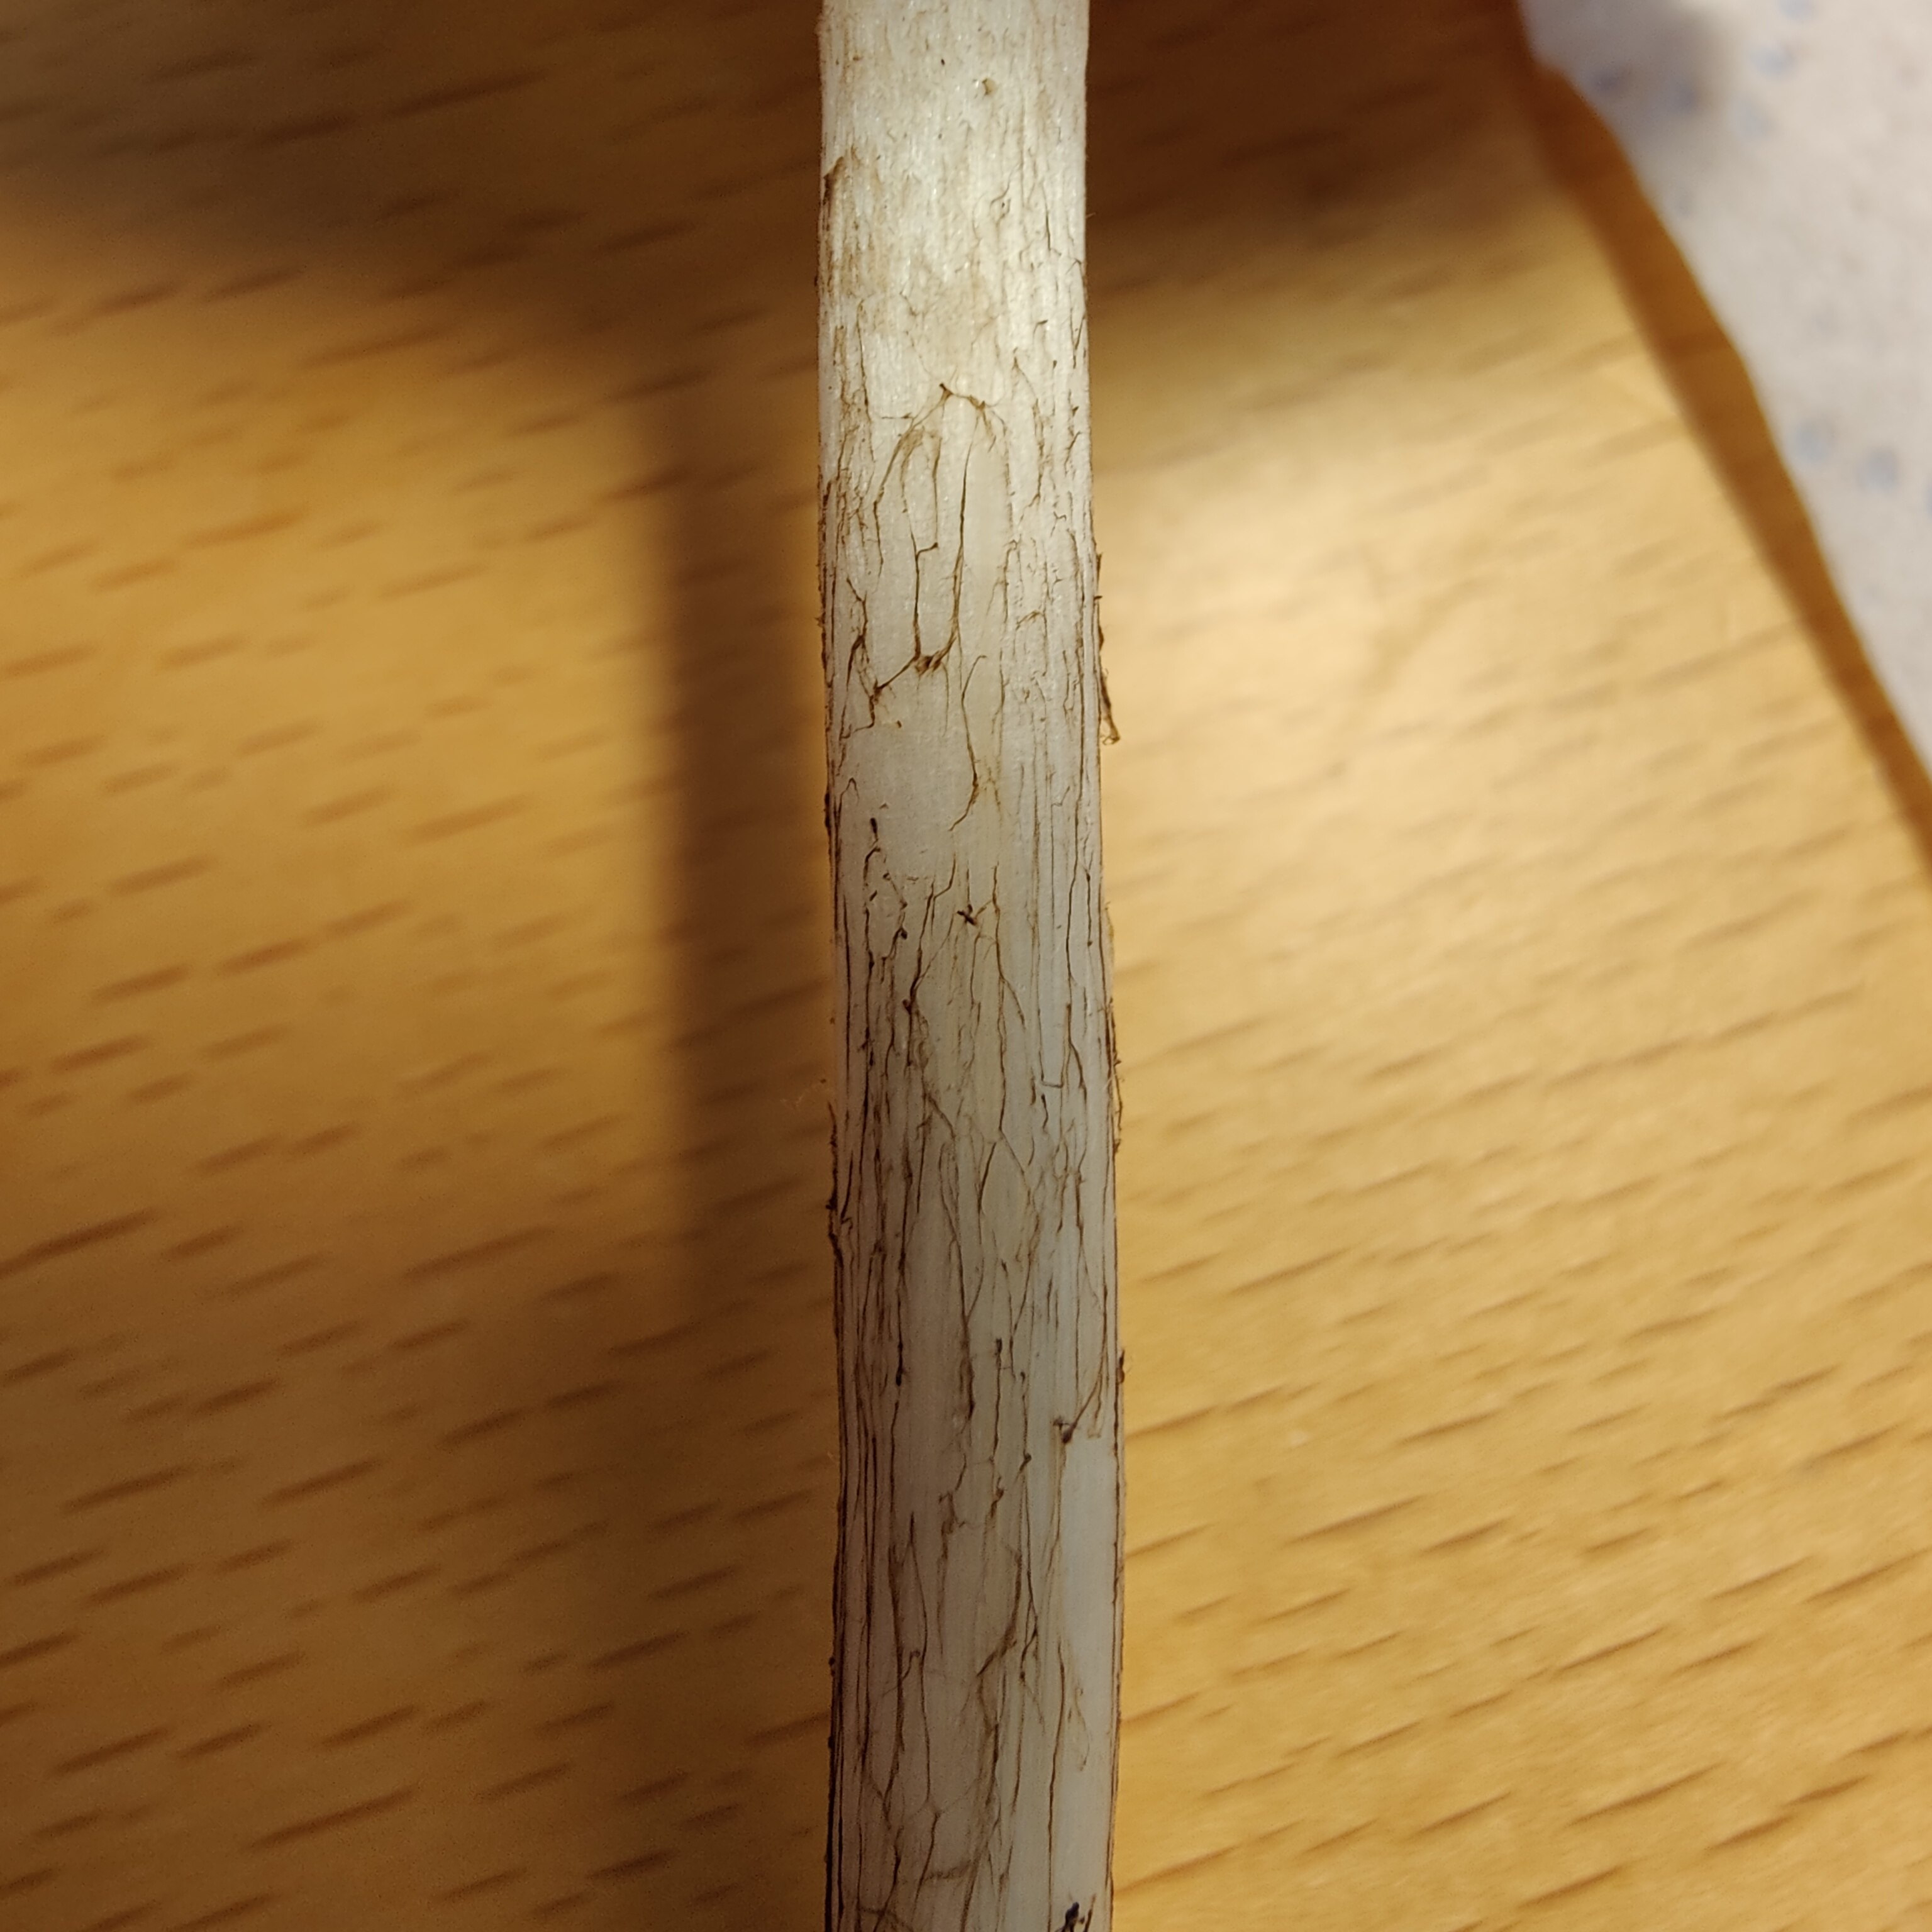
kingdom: Fungi
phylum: Basidiomycota
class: Agaricomycetes
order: Agaricales
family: Pluteaceae
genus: Pluteus
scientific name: Pluteus
